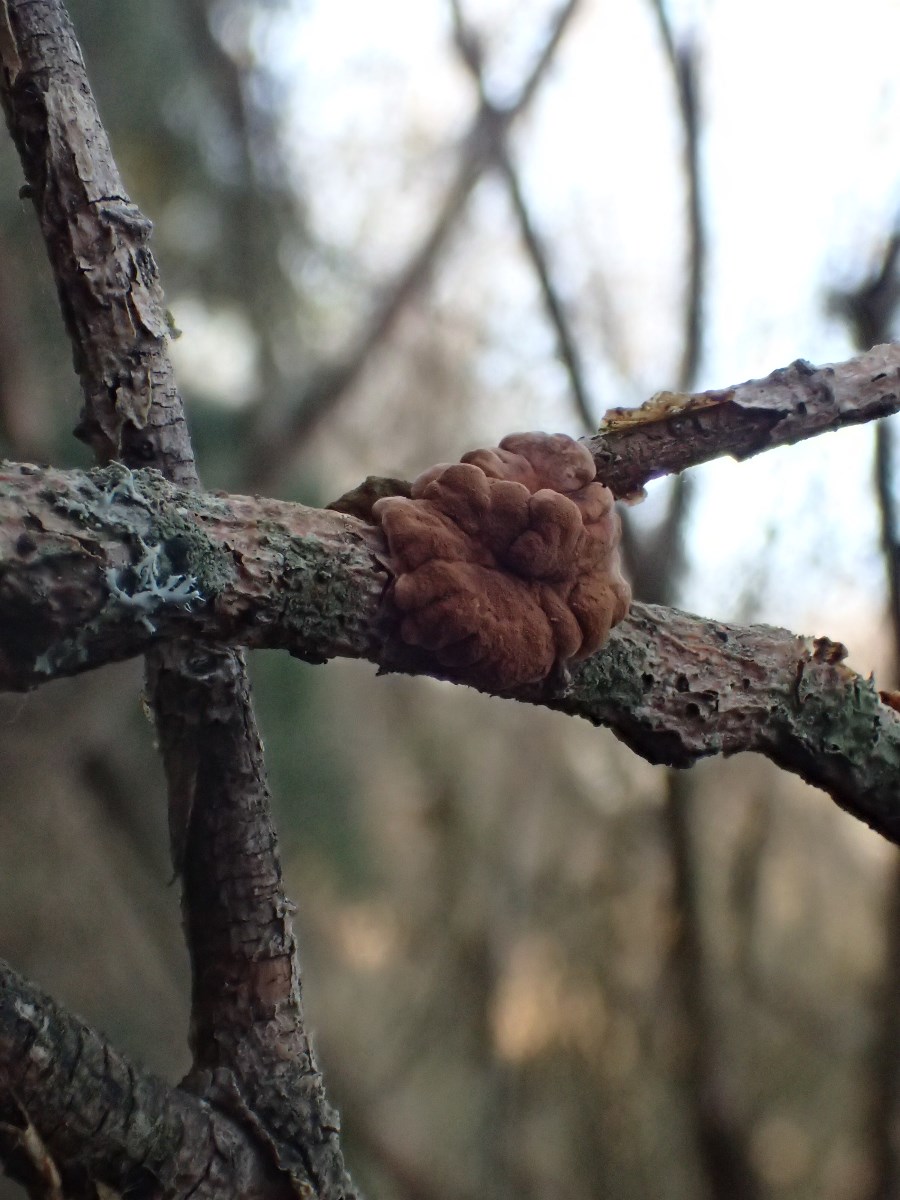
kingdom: Fungi
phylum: Ascomycota
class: Sordariomycetes
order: Hypocreales
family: Hypocreaceae
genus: Hypocreopsis
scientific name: Hypocreopsis lichenoides
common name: pilfinger
